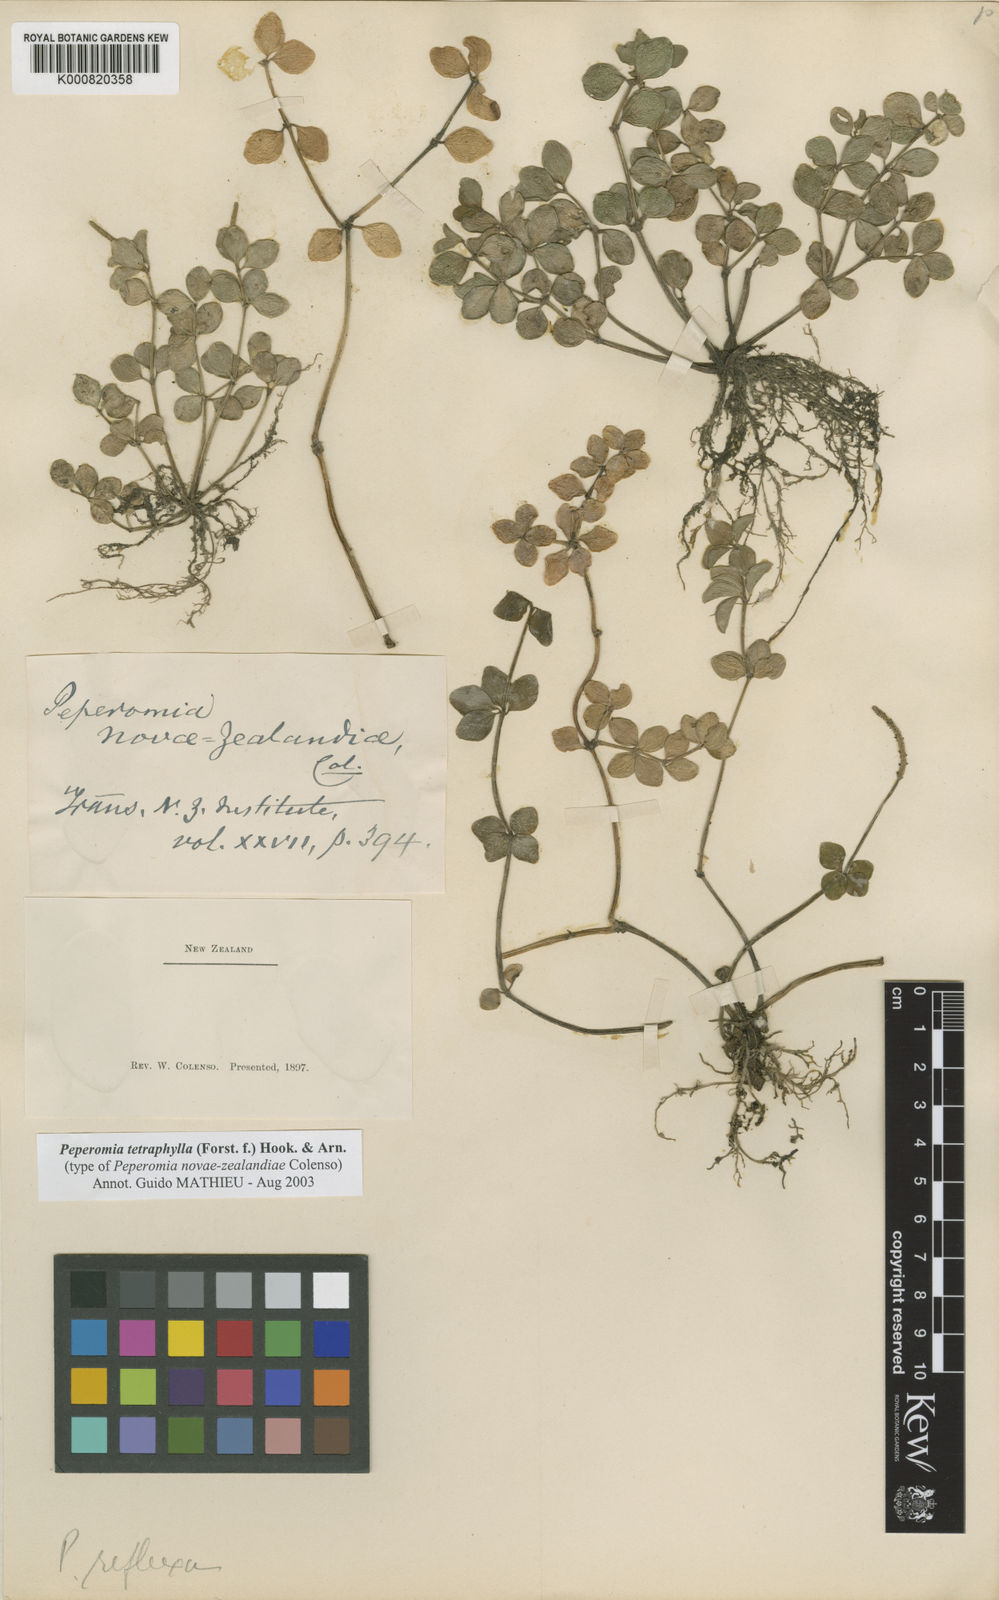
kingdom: Plantae
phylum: Tracheophyta
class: Magnoliopsida
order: Piperales
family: Piperaceae
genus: Peperomia
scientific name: Peperomia tetraphylla
